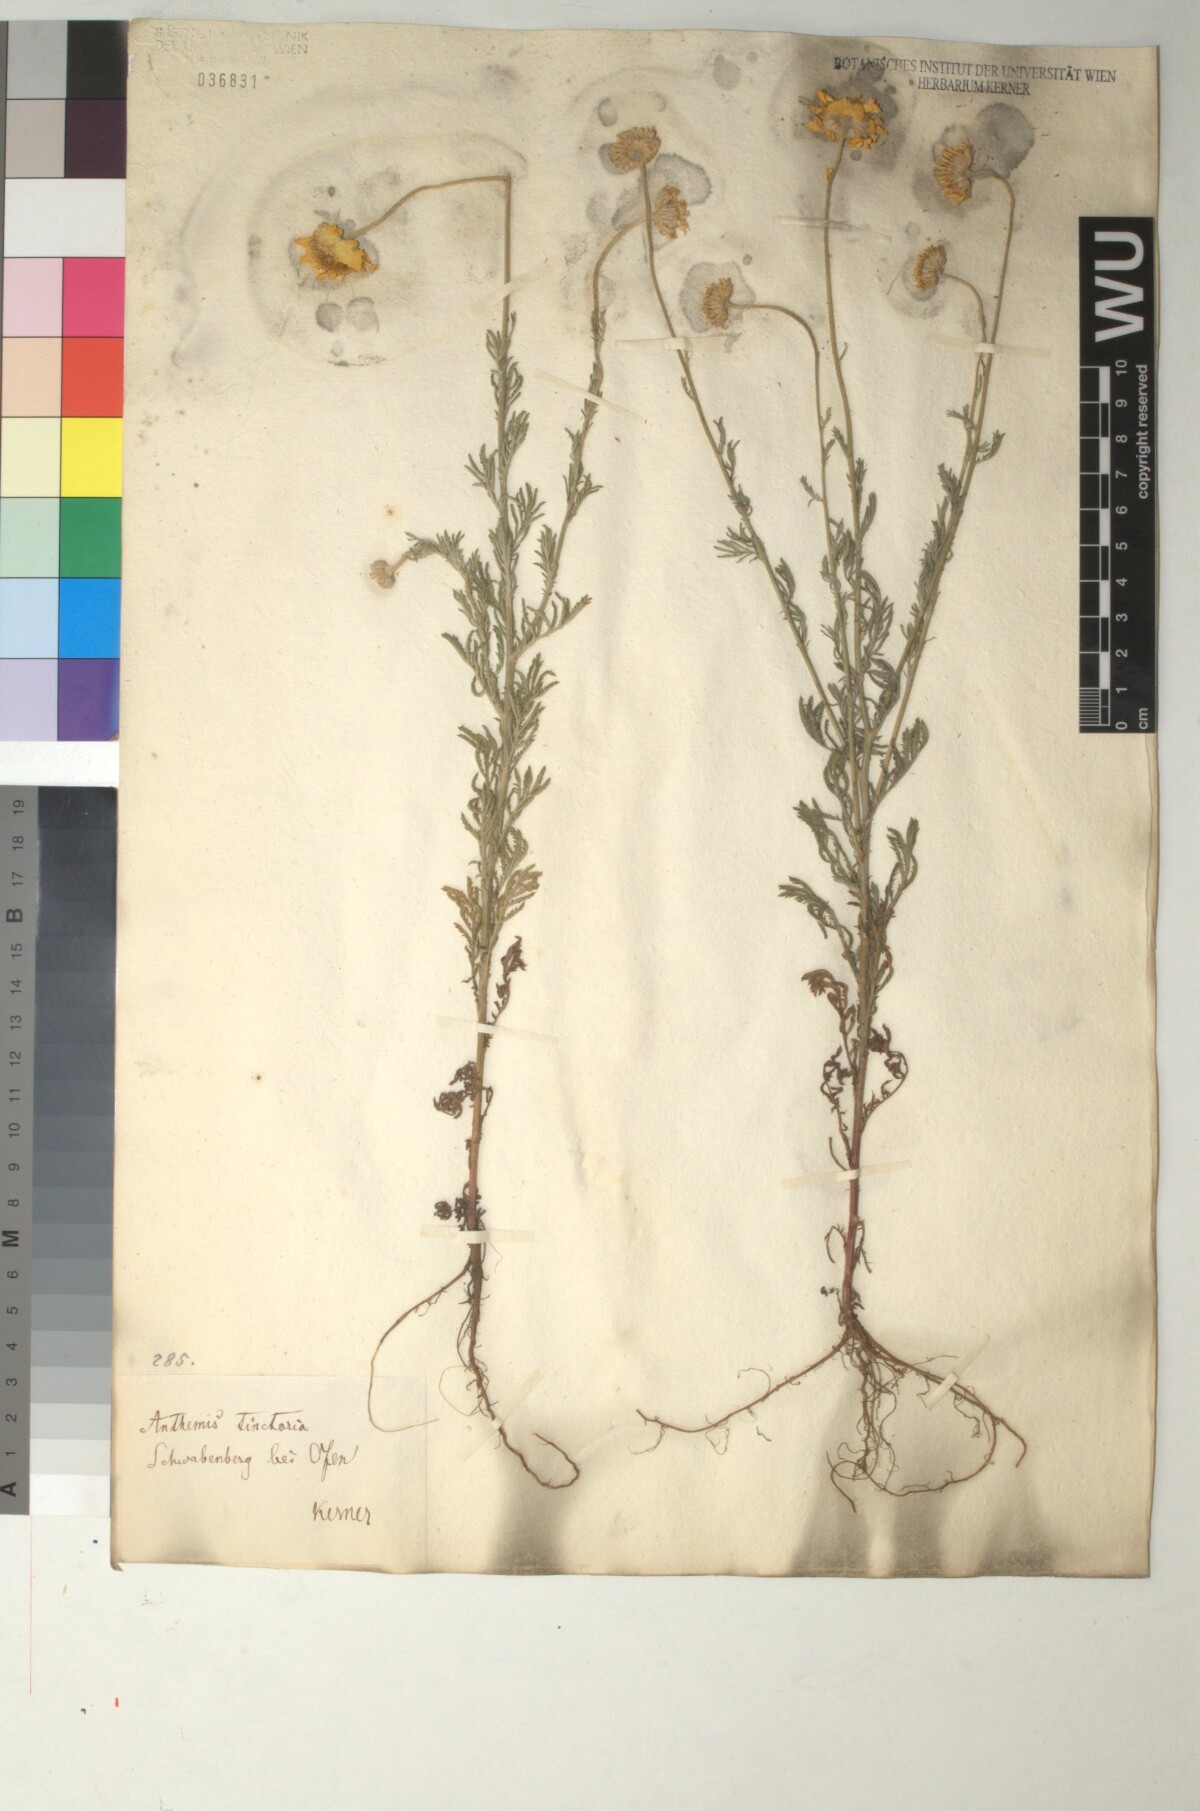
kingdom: Plantae
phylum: Tracheophyta
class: Magnoliopsida
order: Asterales
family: Asteraceae
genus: Cota
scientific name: Cota tinctoria
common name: Golden chamomile
